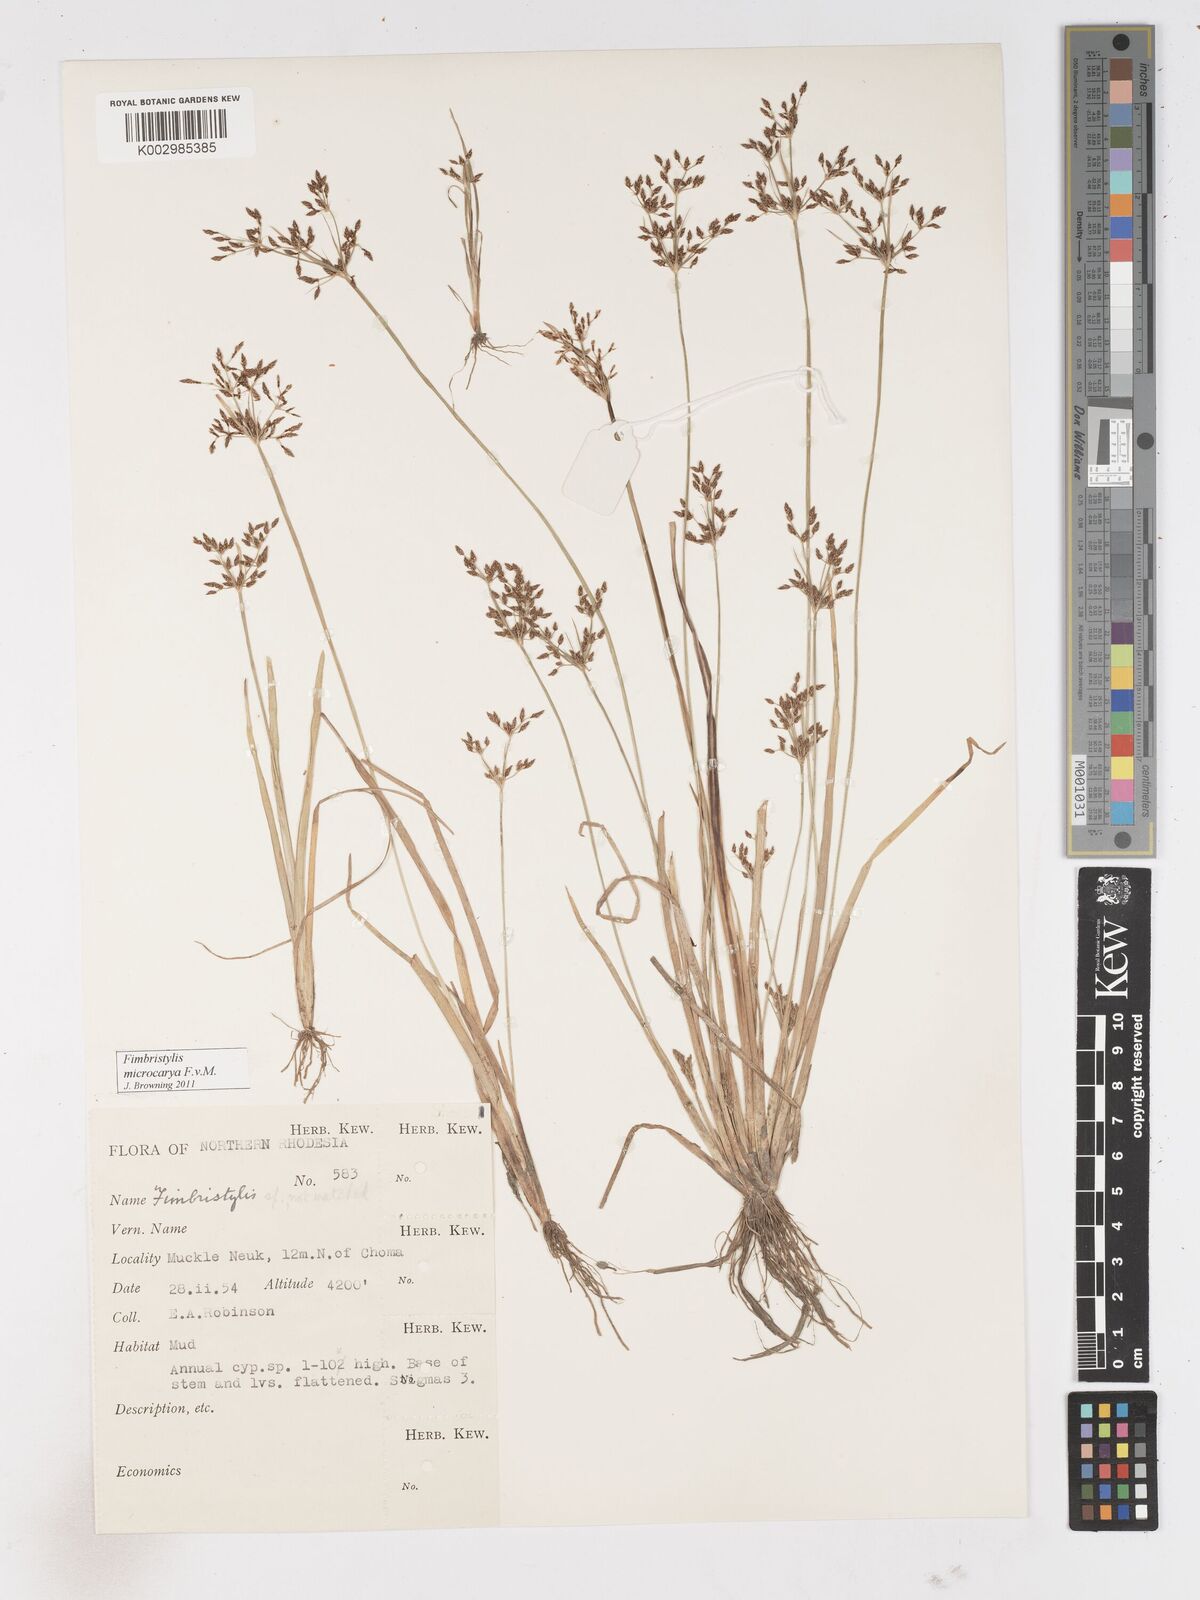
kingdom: Plantae
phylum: Tracheophyta
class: Liliopsida
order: Poales
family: Cyperaceae
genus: Fimbristylis
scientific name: Fimbristylis microcarya
